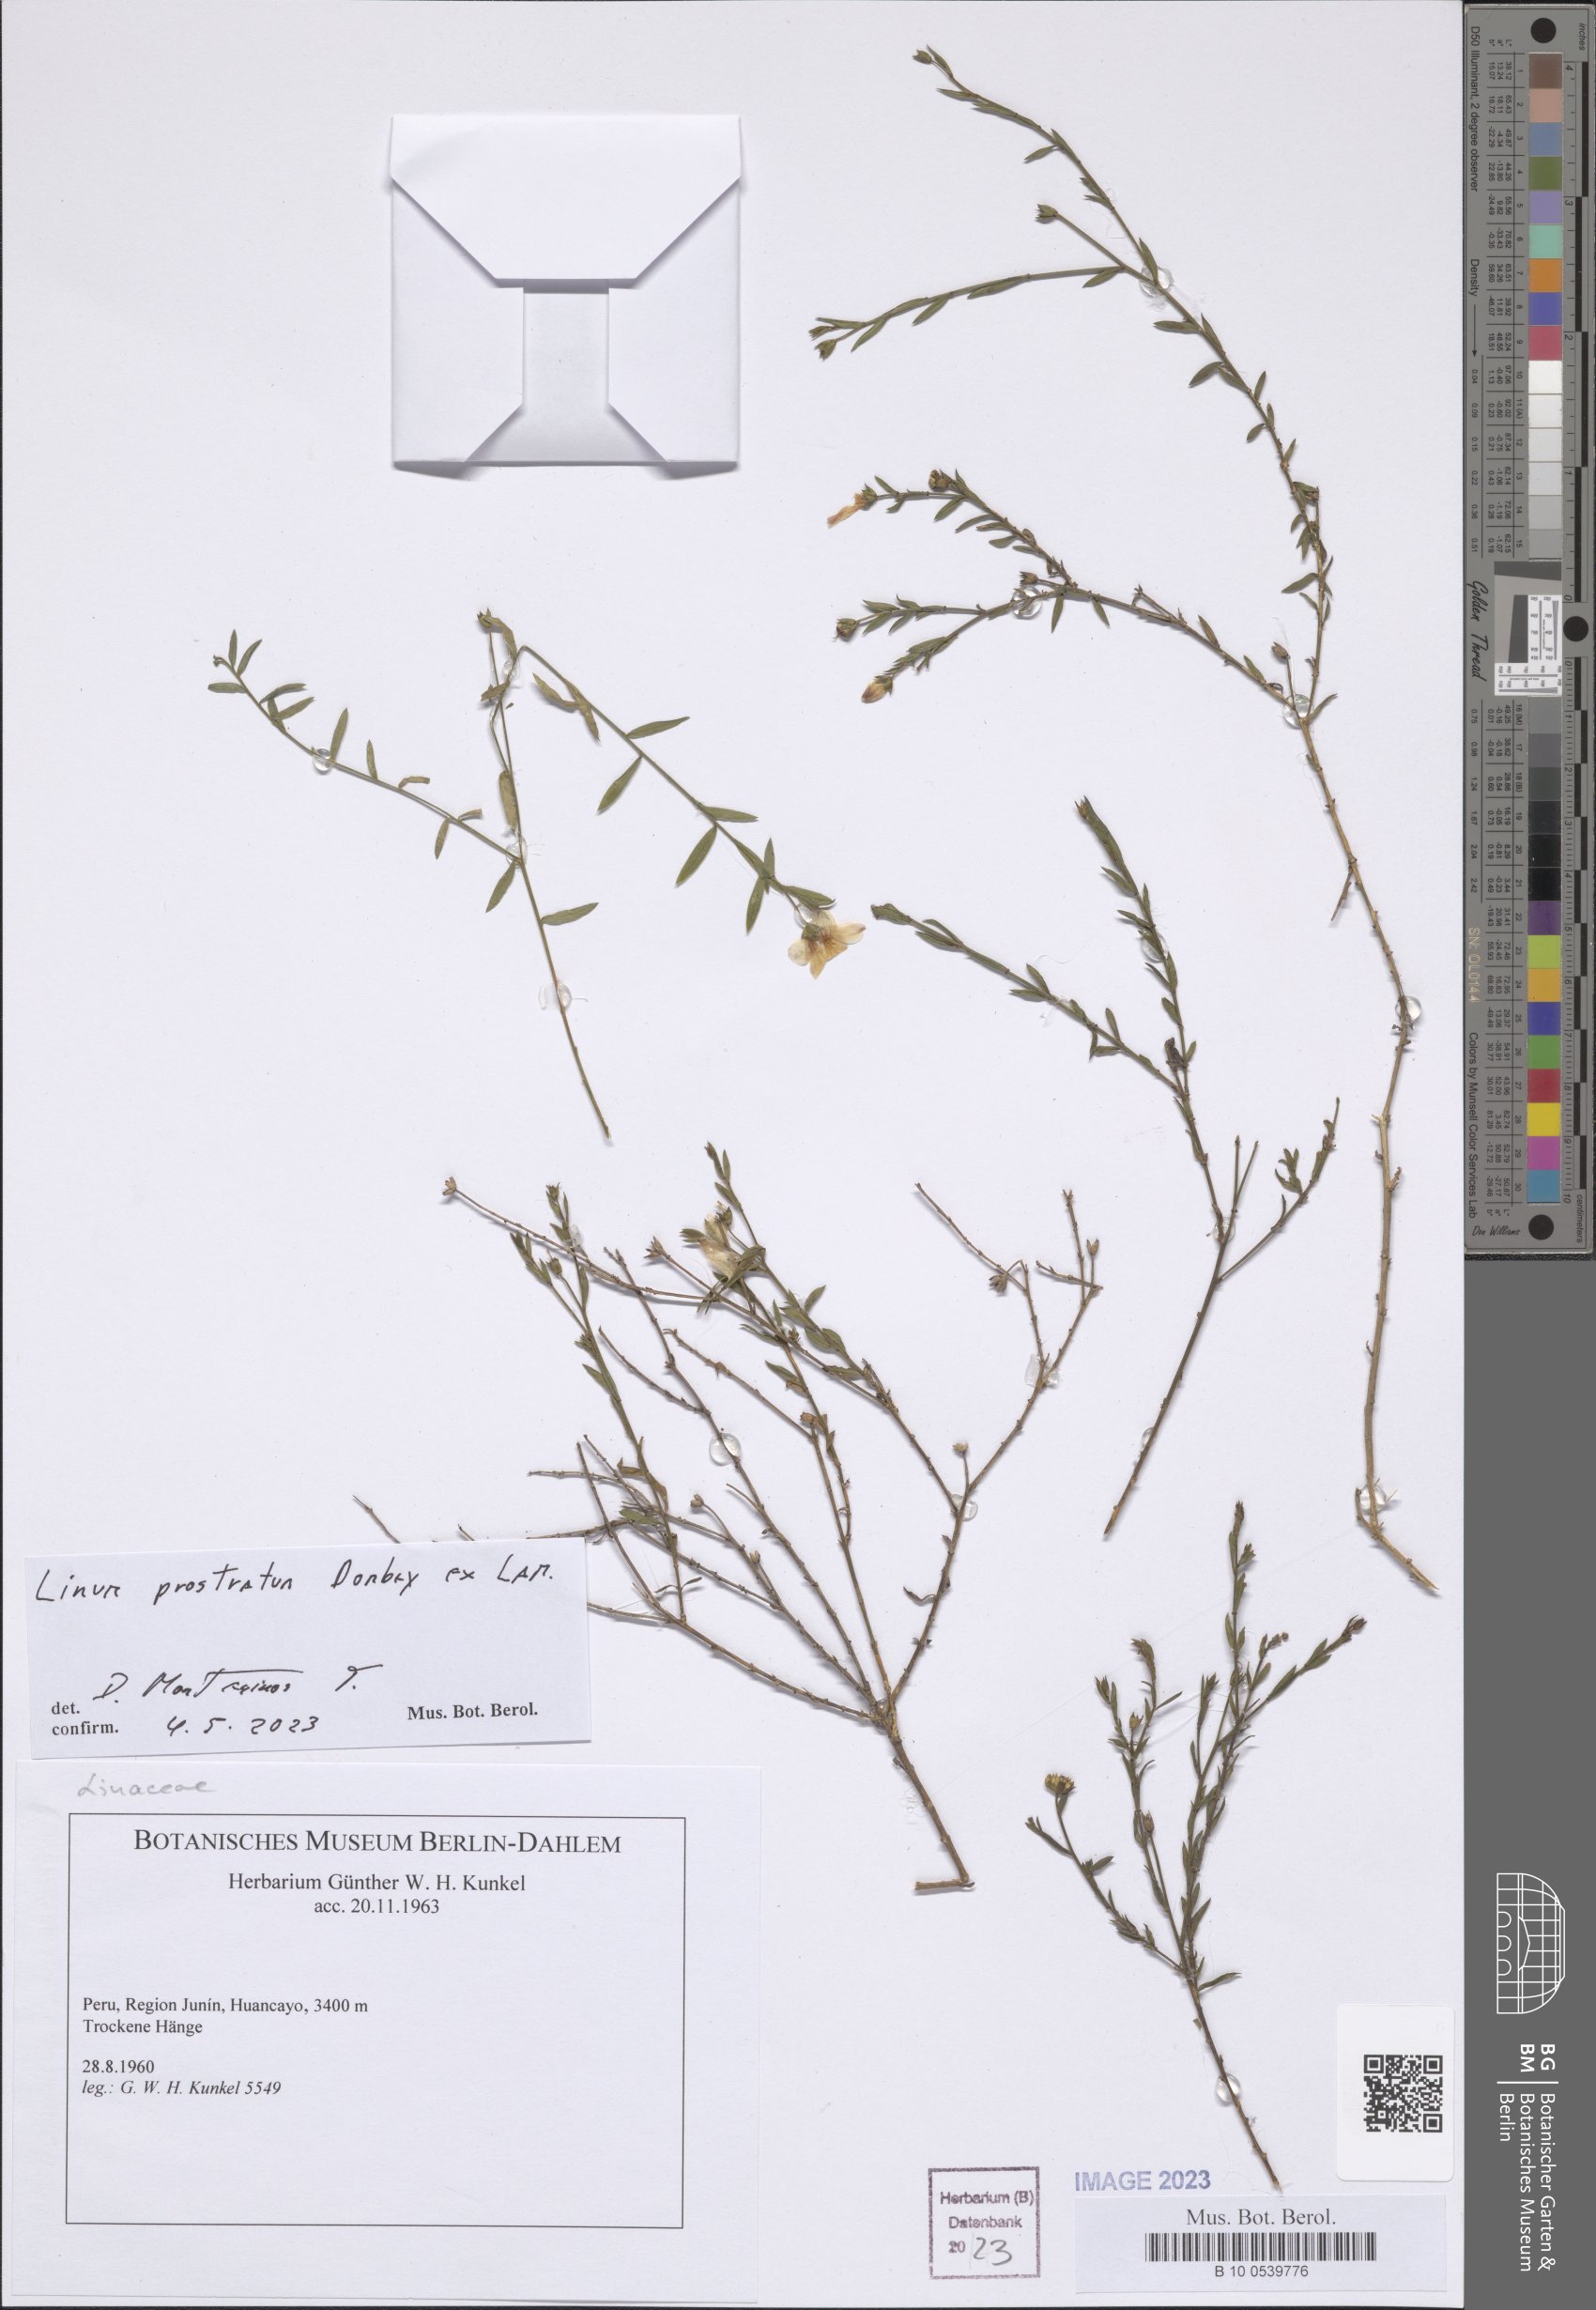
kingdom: Plantae
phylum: Tracheophyta
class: Magnoliopsida
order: Malpighiales
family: Linaceae
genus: Linum
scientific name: Linum prostratum
